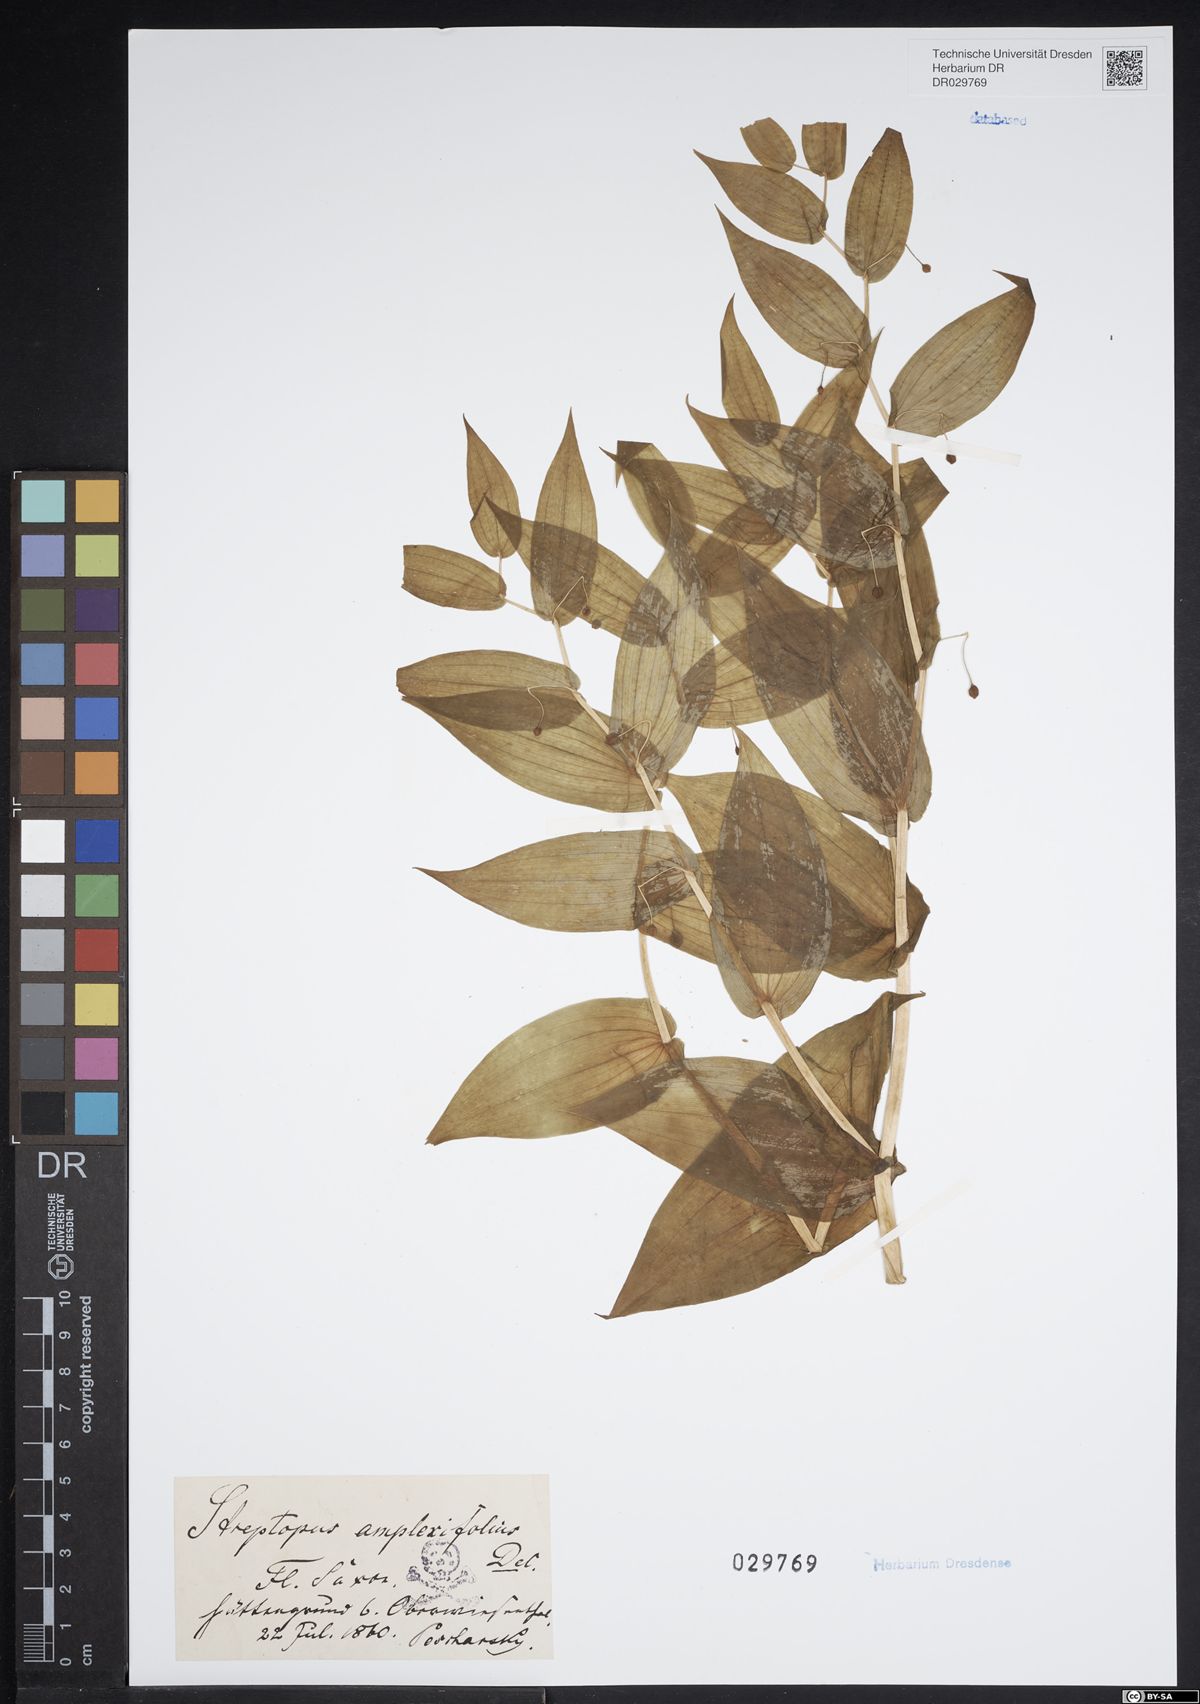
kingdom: Plantae
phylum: Tracheophyta
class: Liliopsida
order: Liliales
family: Liliaceae
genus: Streptopus
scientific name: Streptopus amplexifolius
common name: Clasp twisted stalk
